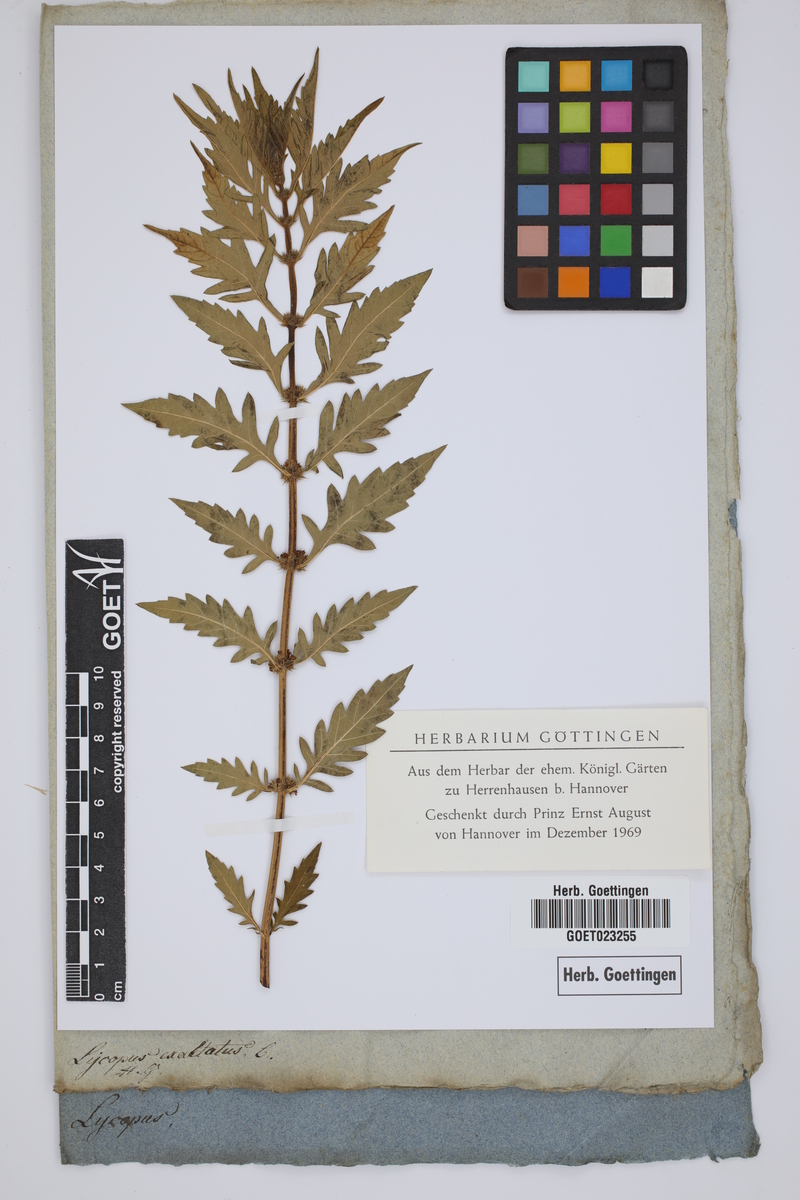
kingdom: Plantae
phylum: Tracheophyta
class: Magnoliopsida
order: Lamiales
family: Lamiaceae
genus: Lycopus
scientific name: Lycopus exaltatus
